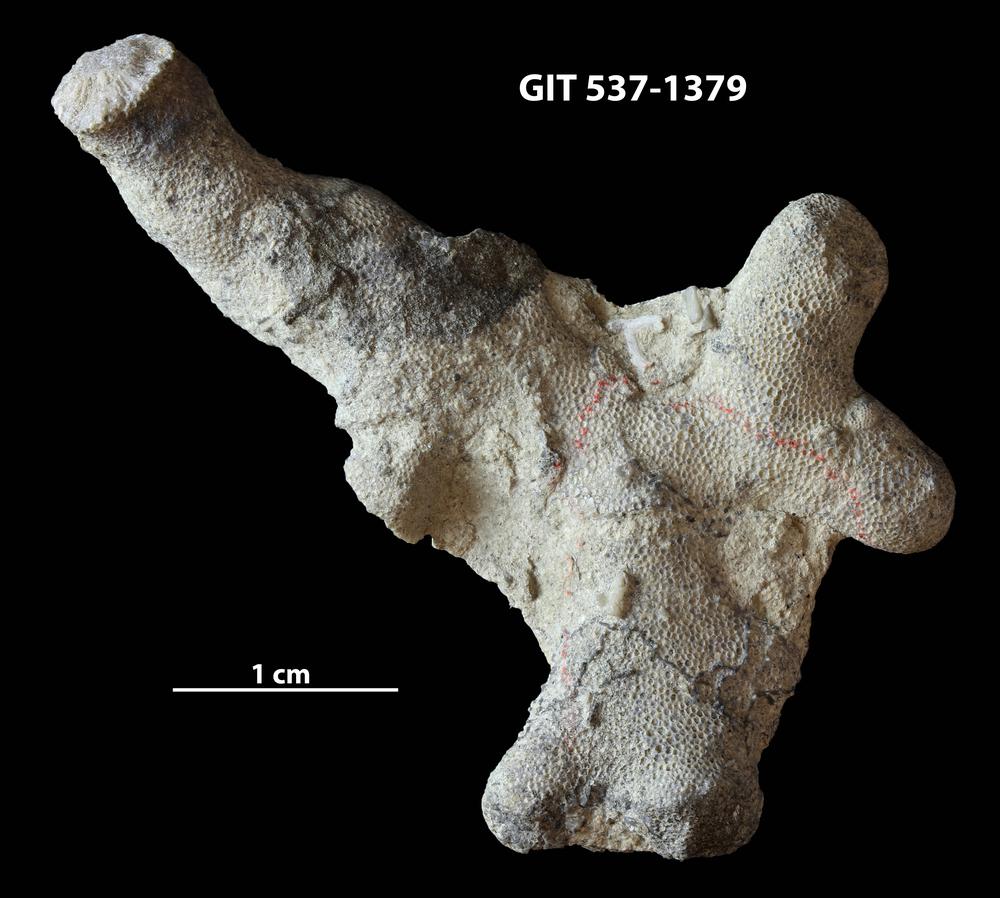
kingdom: Animalia
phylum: Bryozoa
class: Stenolaemata
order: Trepostomatida
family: Halloporidae
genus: Hallopora
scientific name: Hallopora tolli
